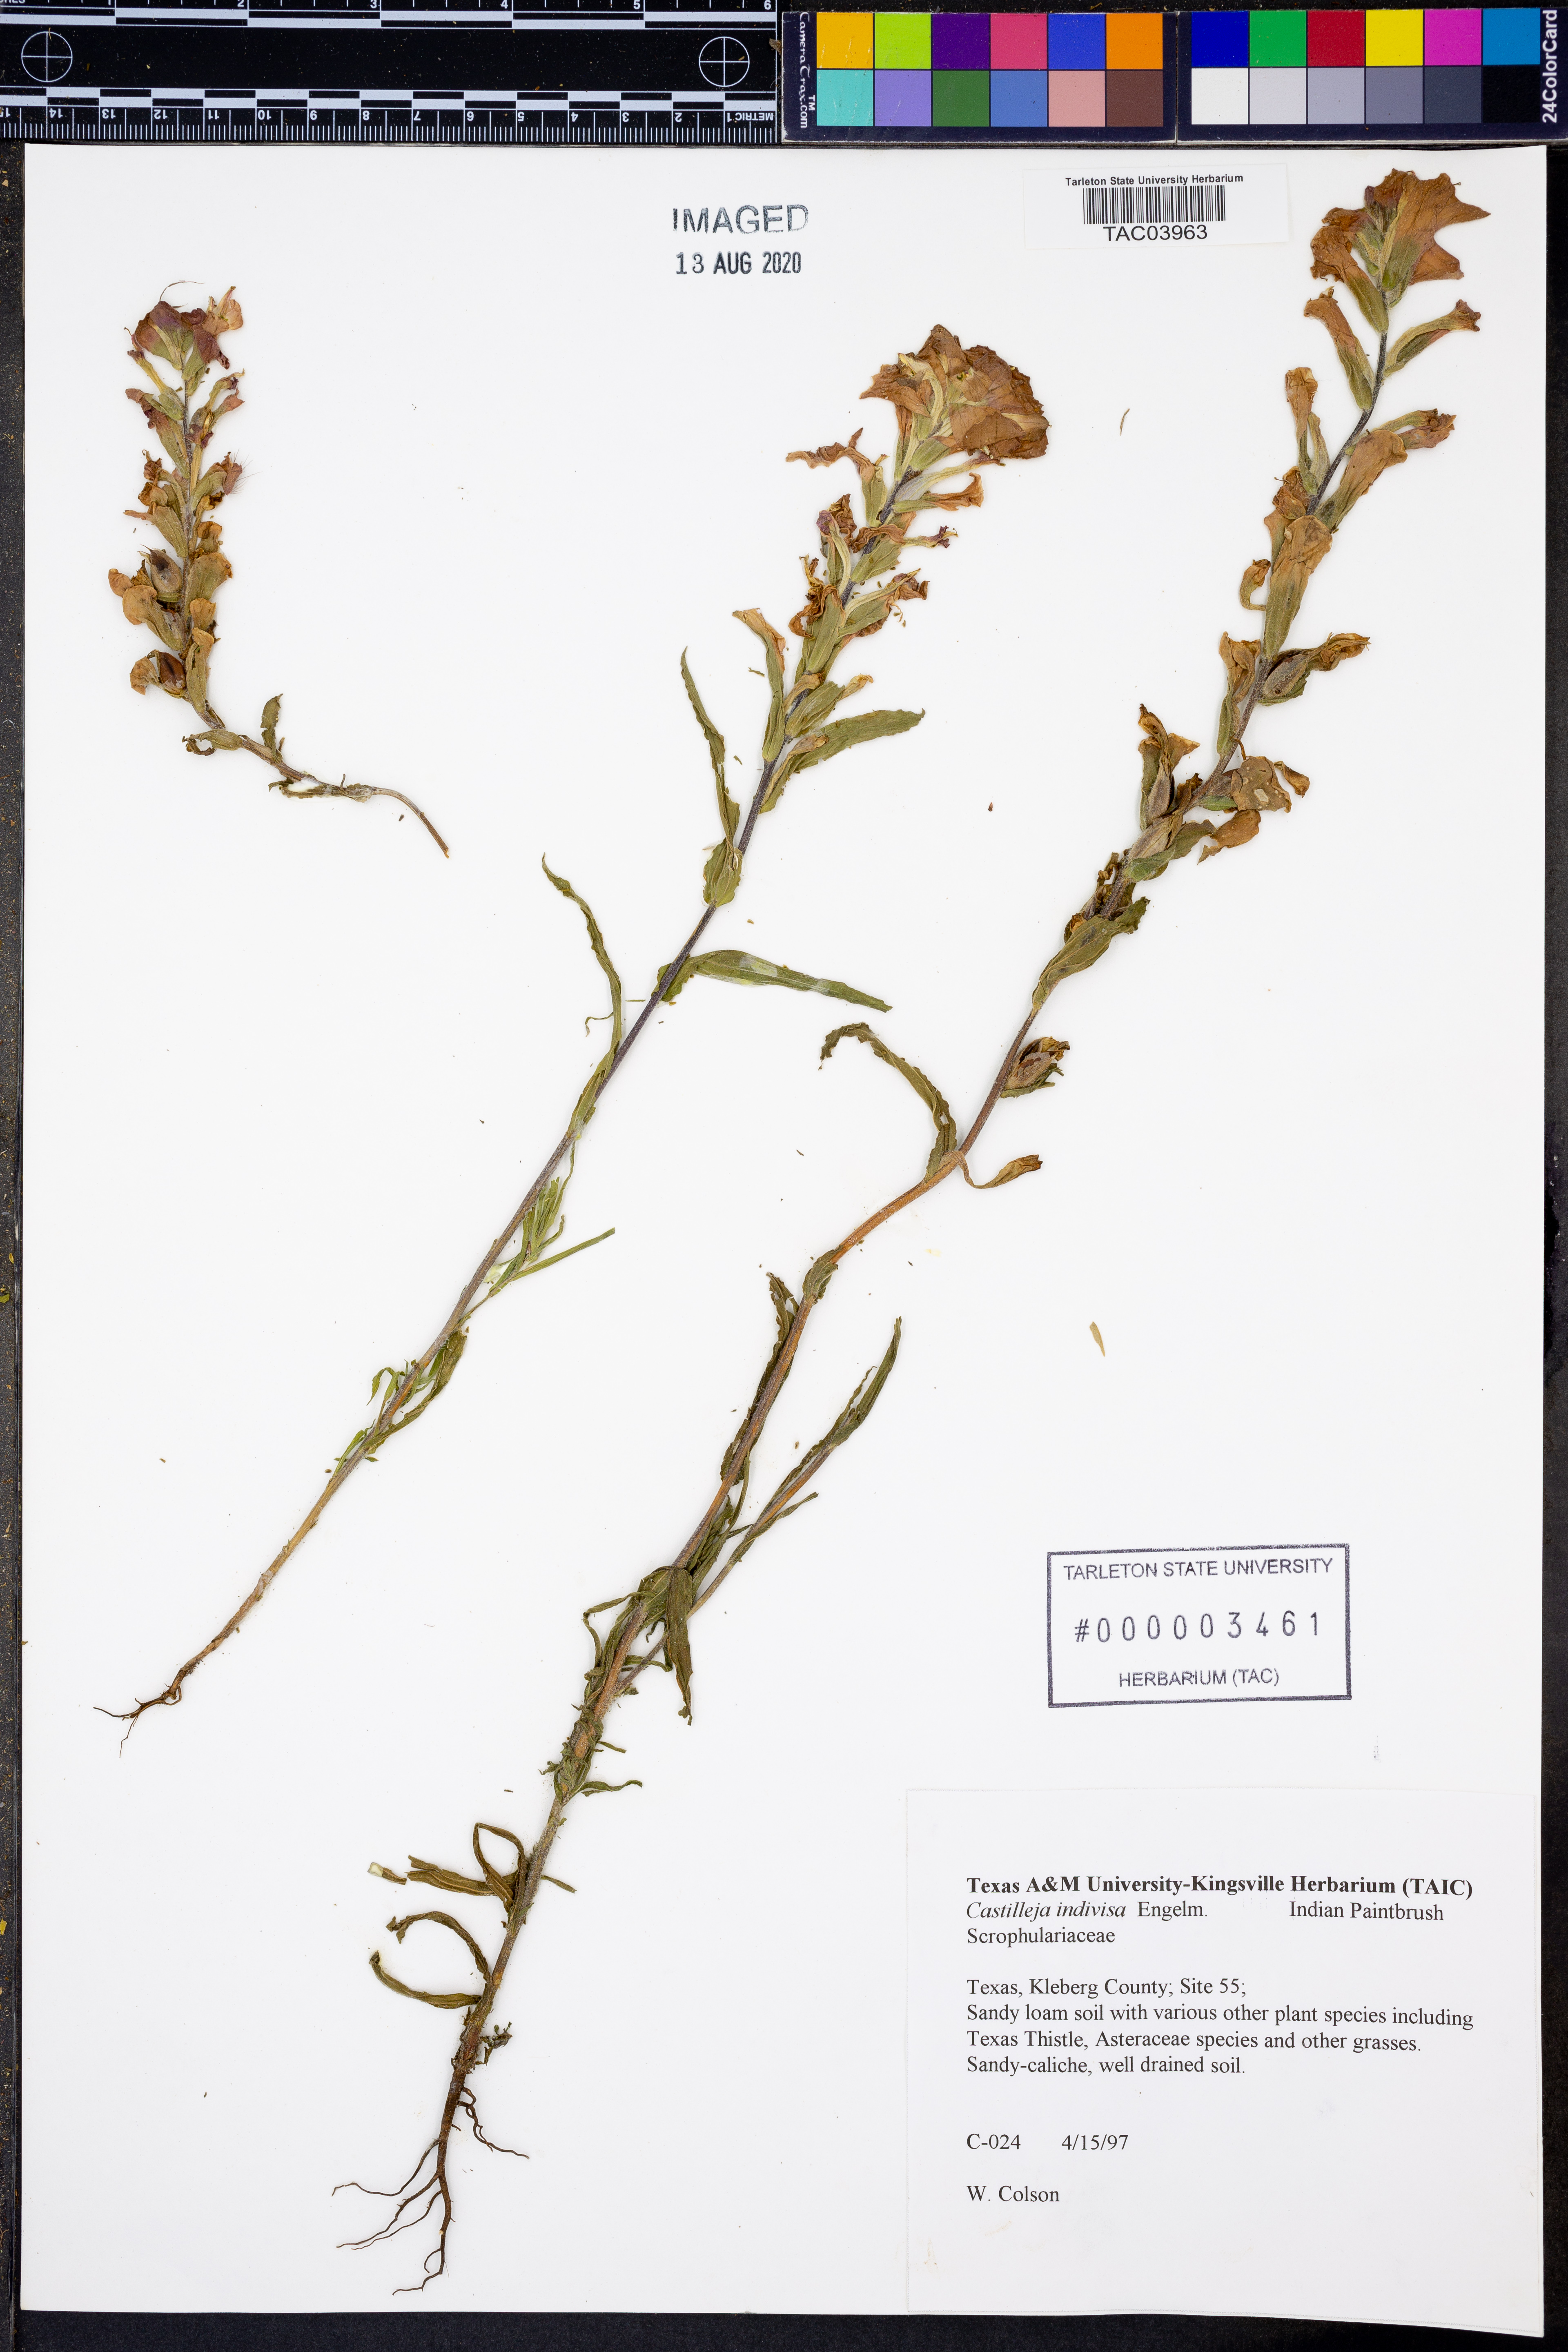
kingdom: Plantae
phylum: Tracheophyta
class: Magnoliopsida
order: Lamiales
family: Orobanchaceae
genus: Castilleja
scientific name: Castilleja indivisa
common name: Texas paintbrush
